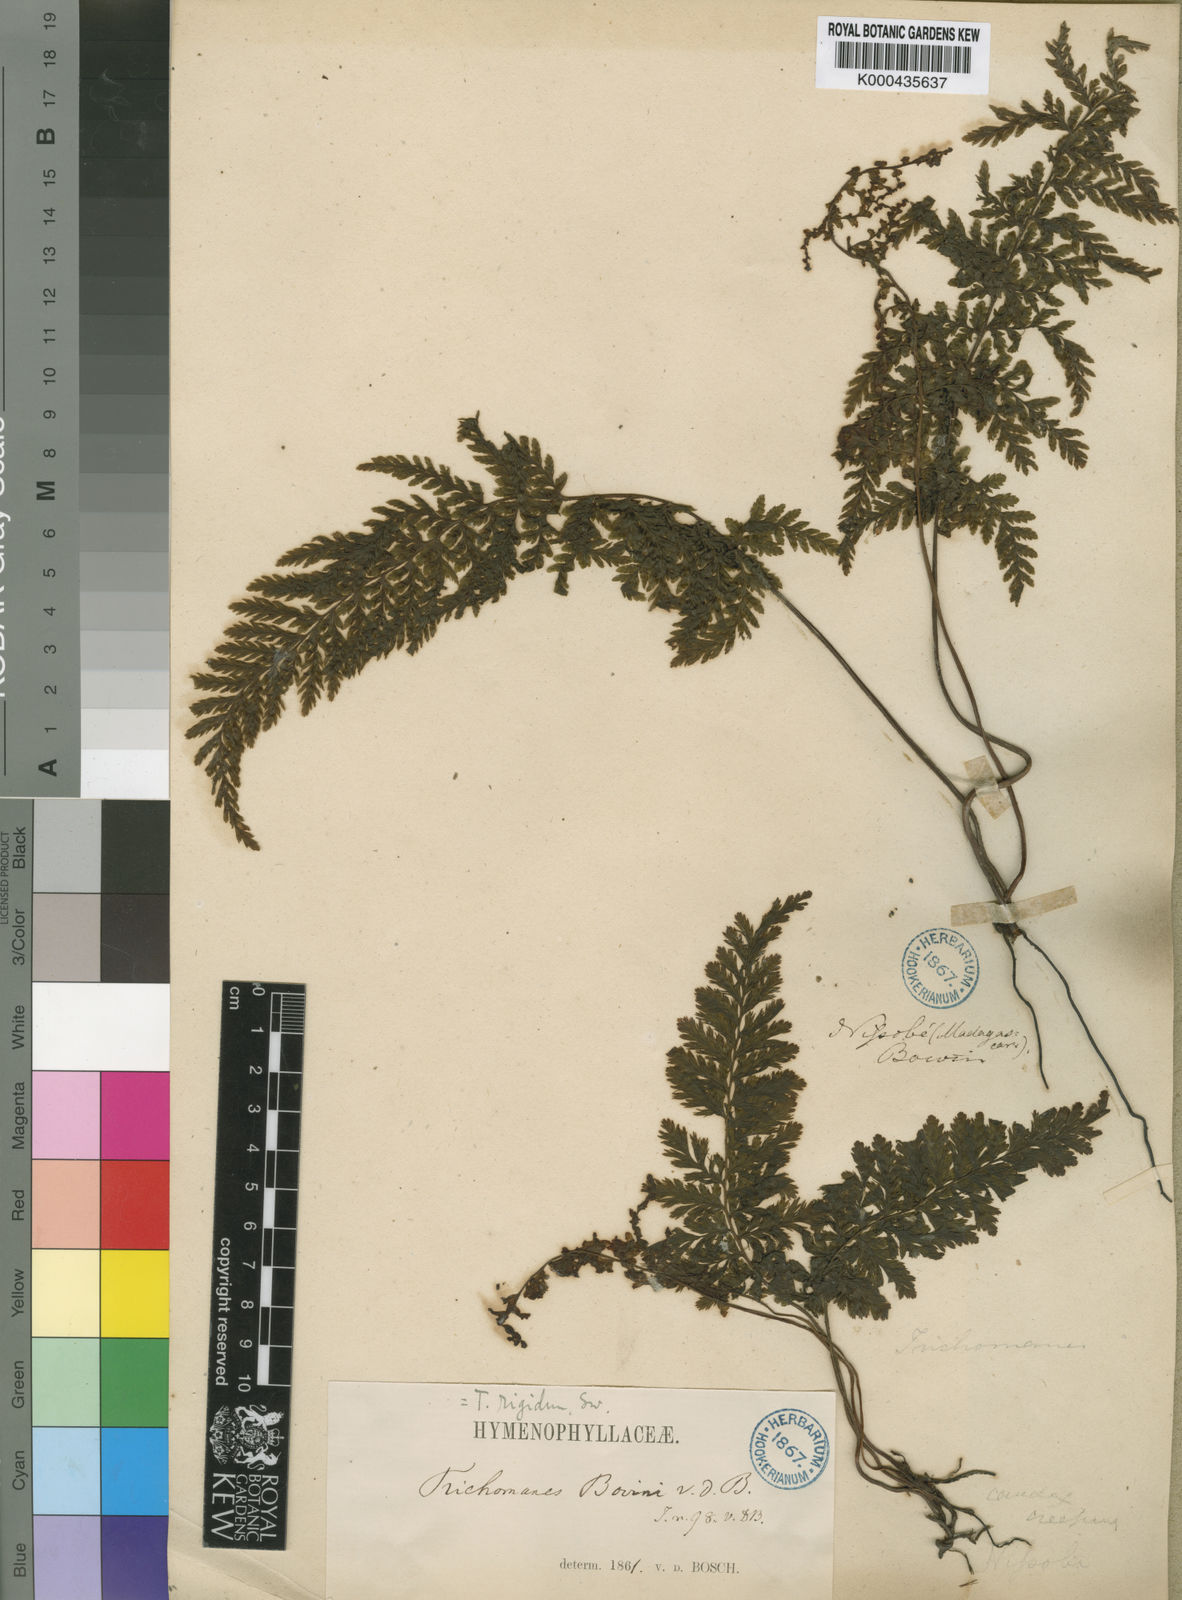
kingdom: Plantae
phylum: Tracheophyta
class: Polypodiopsida
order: Hymenophyllales
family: Hymenophyllaceae
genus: Trichomanes
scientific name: Trichomanes boivinii
